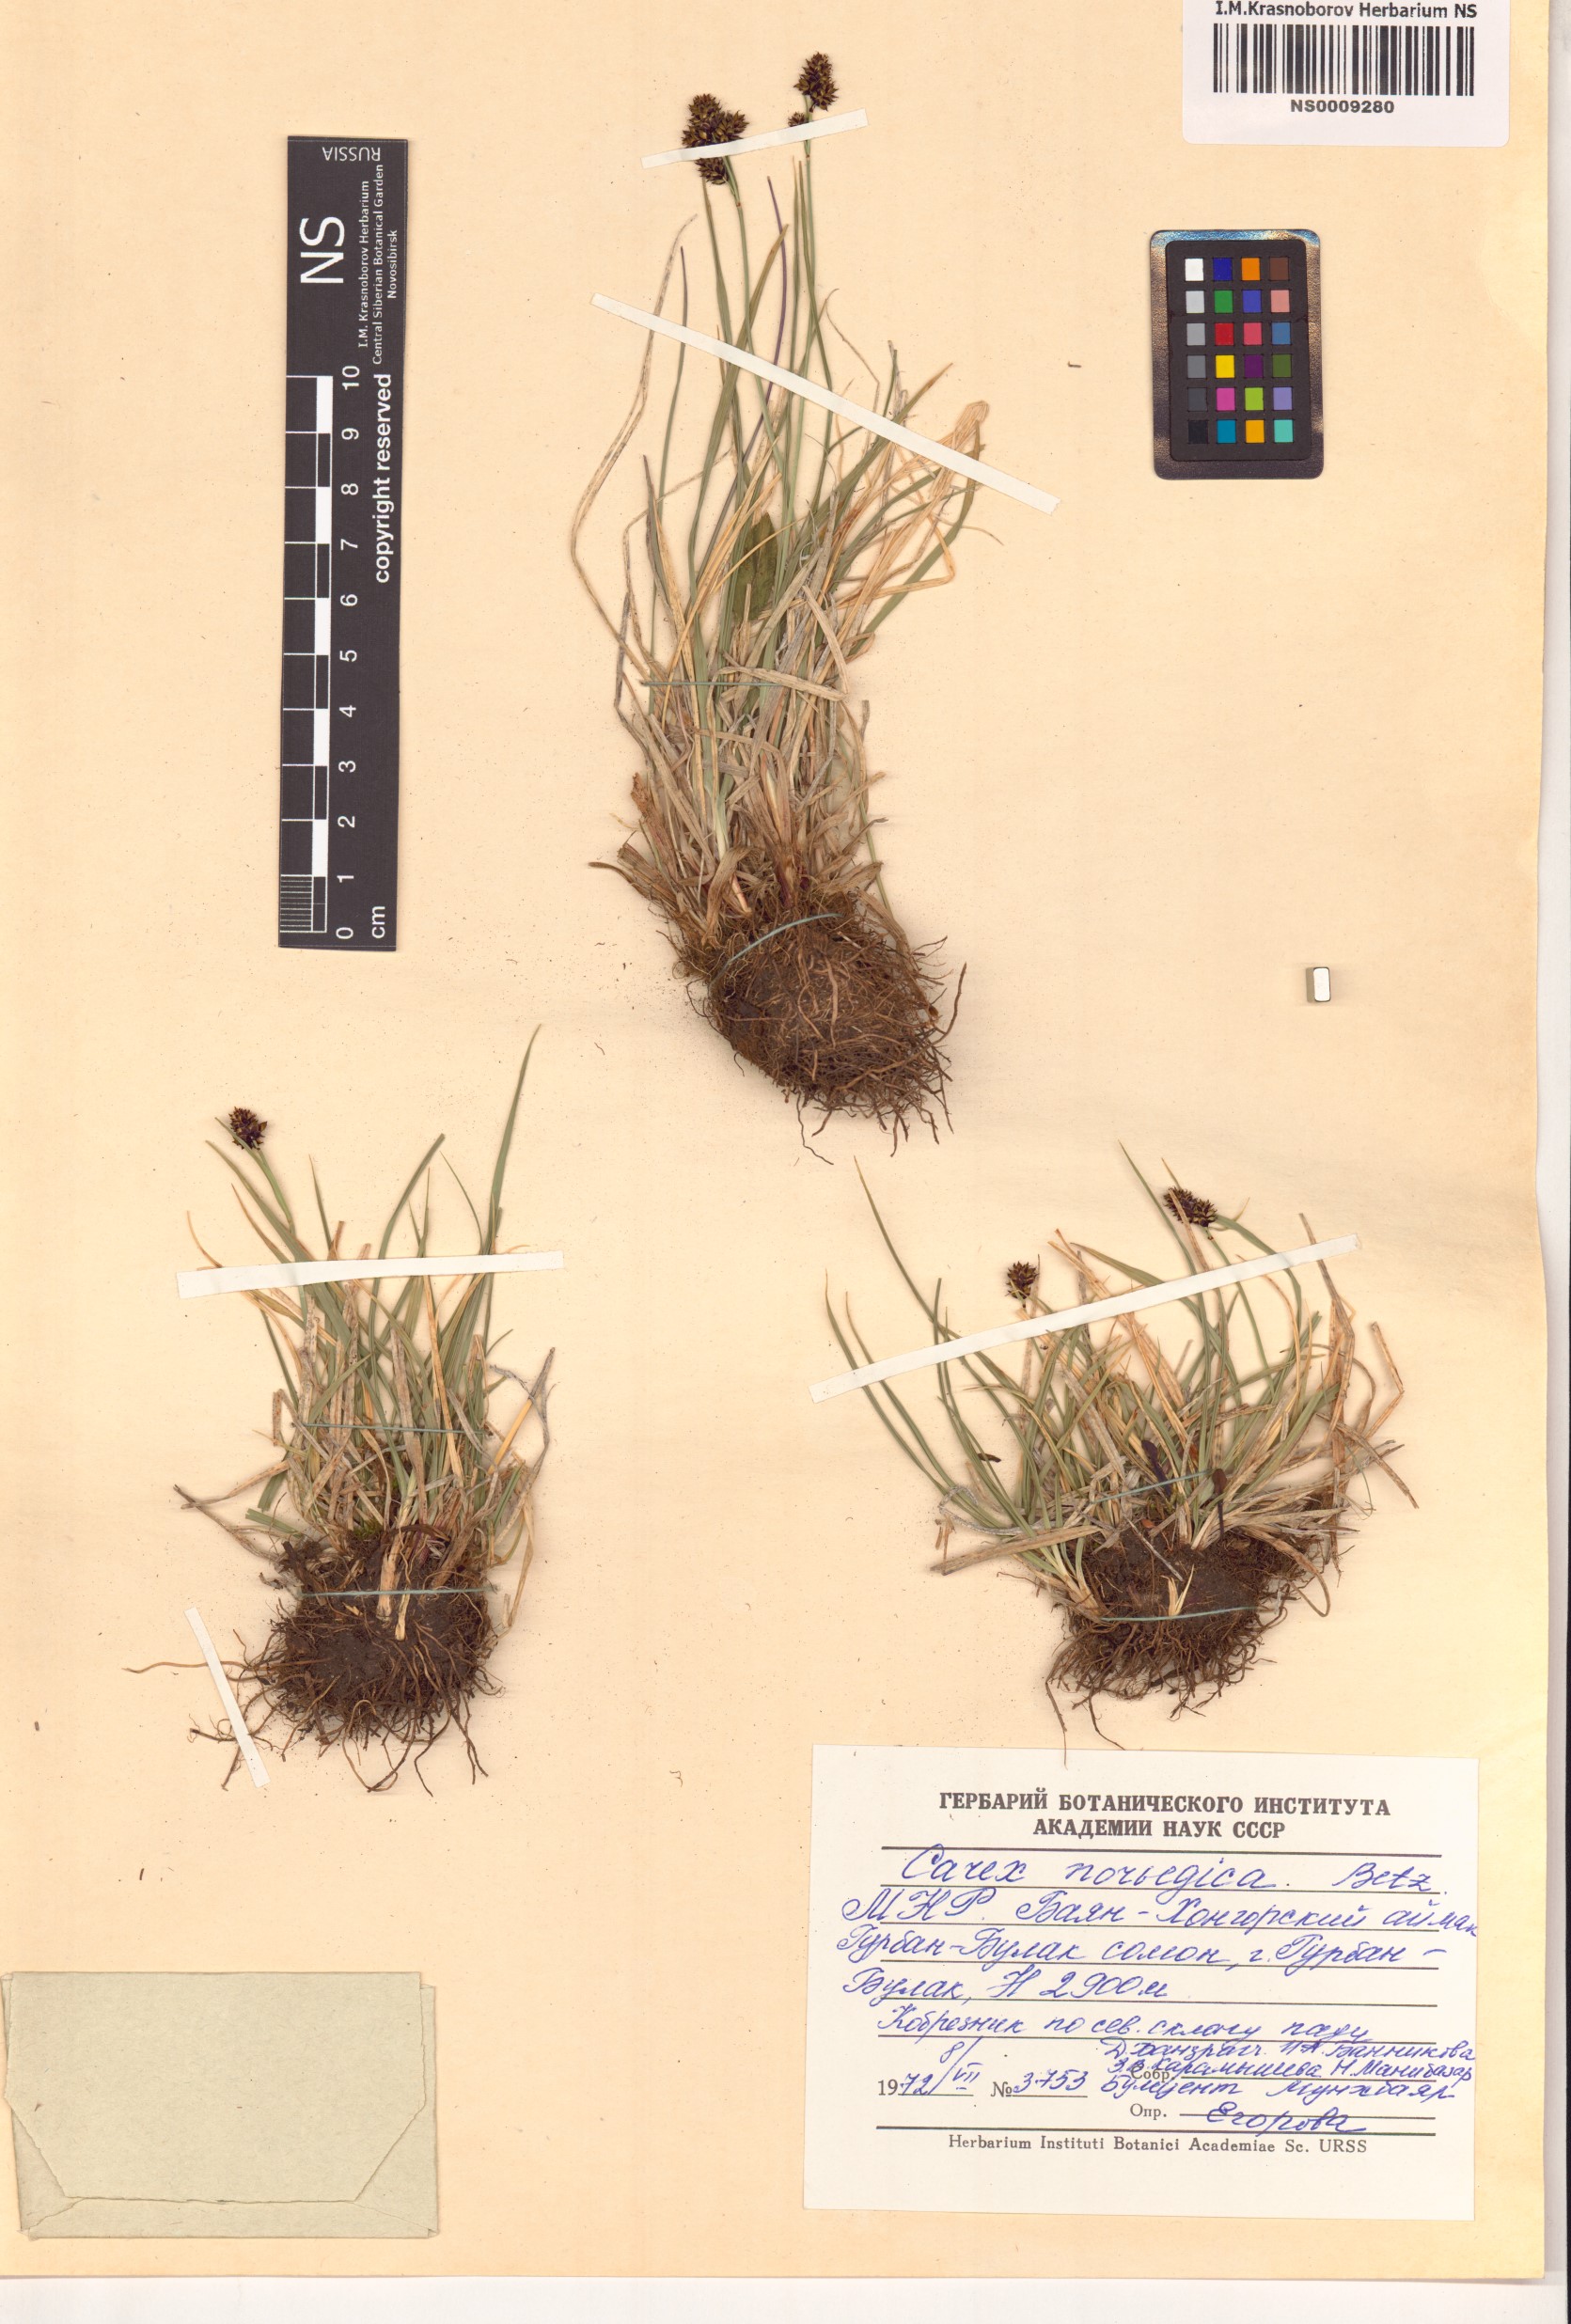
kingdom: Plantae
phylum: Tracheophyta
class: Liliopsida
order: Poales
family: Cyperaceae
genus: Carex
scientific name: Carex norvegica
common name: Close-headed alpine-sedge
